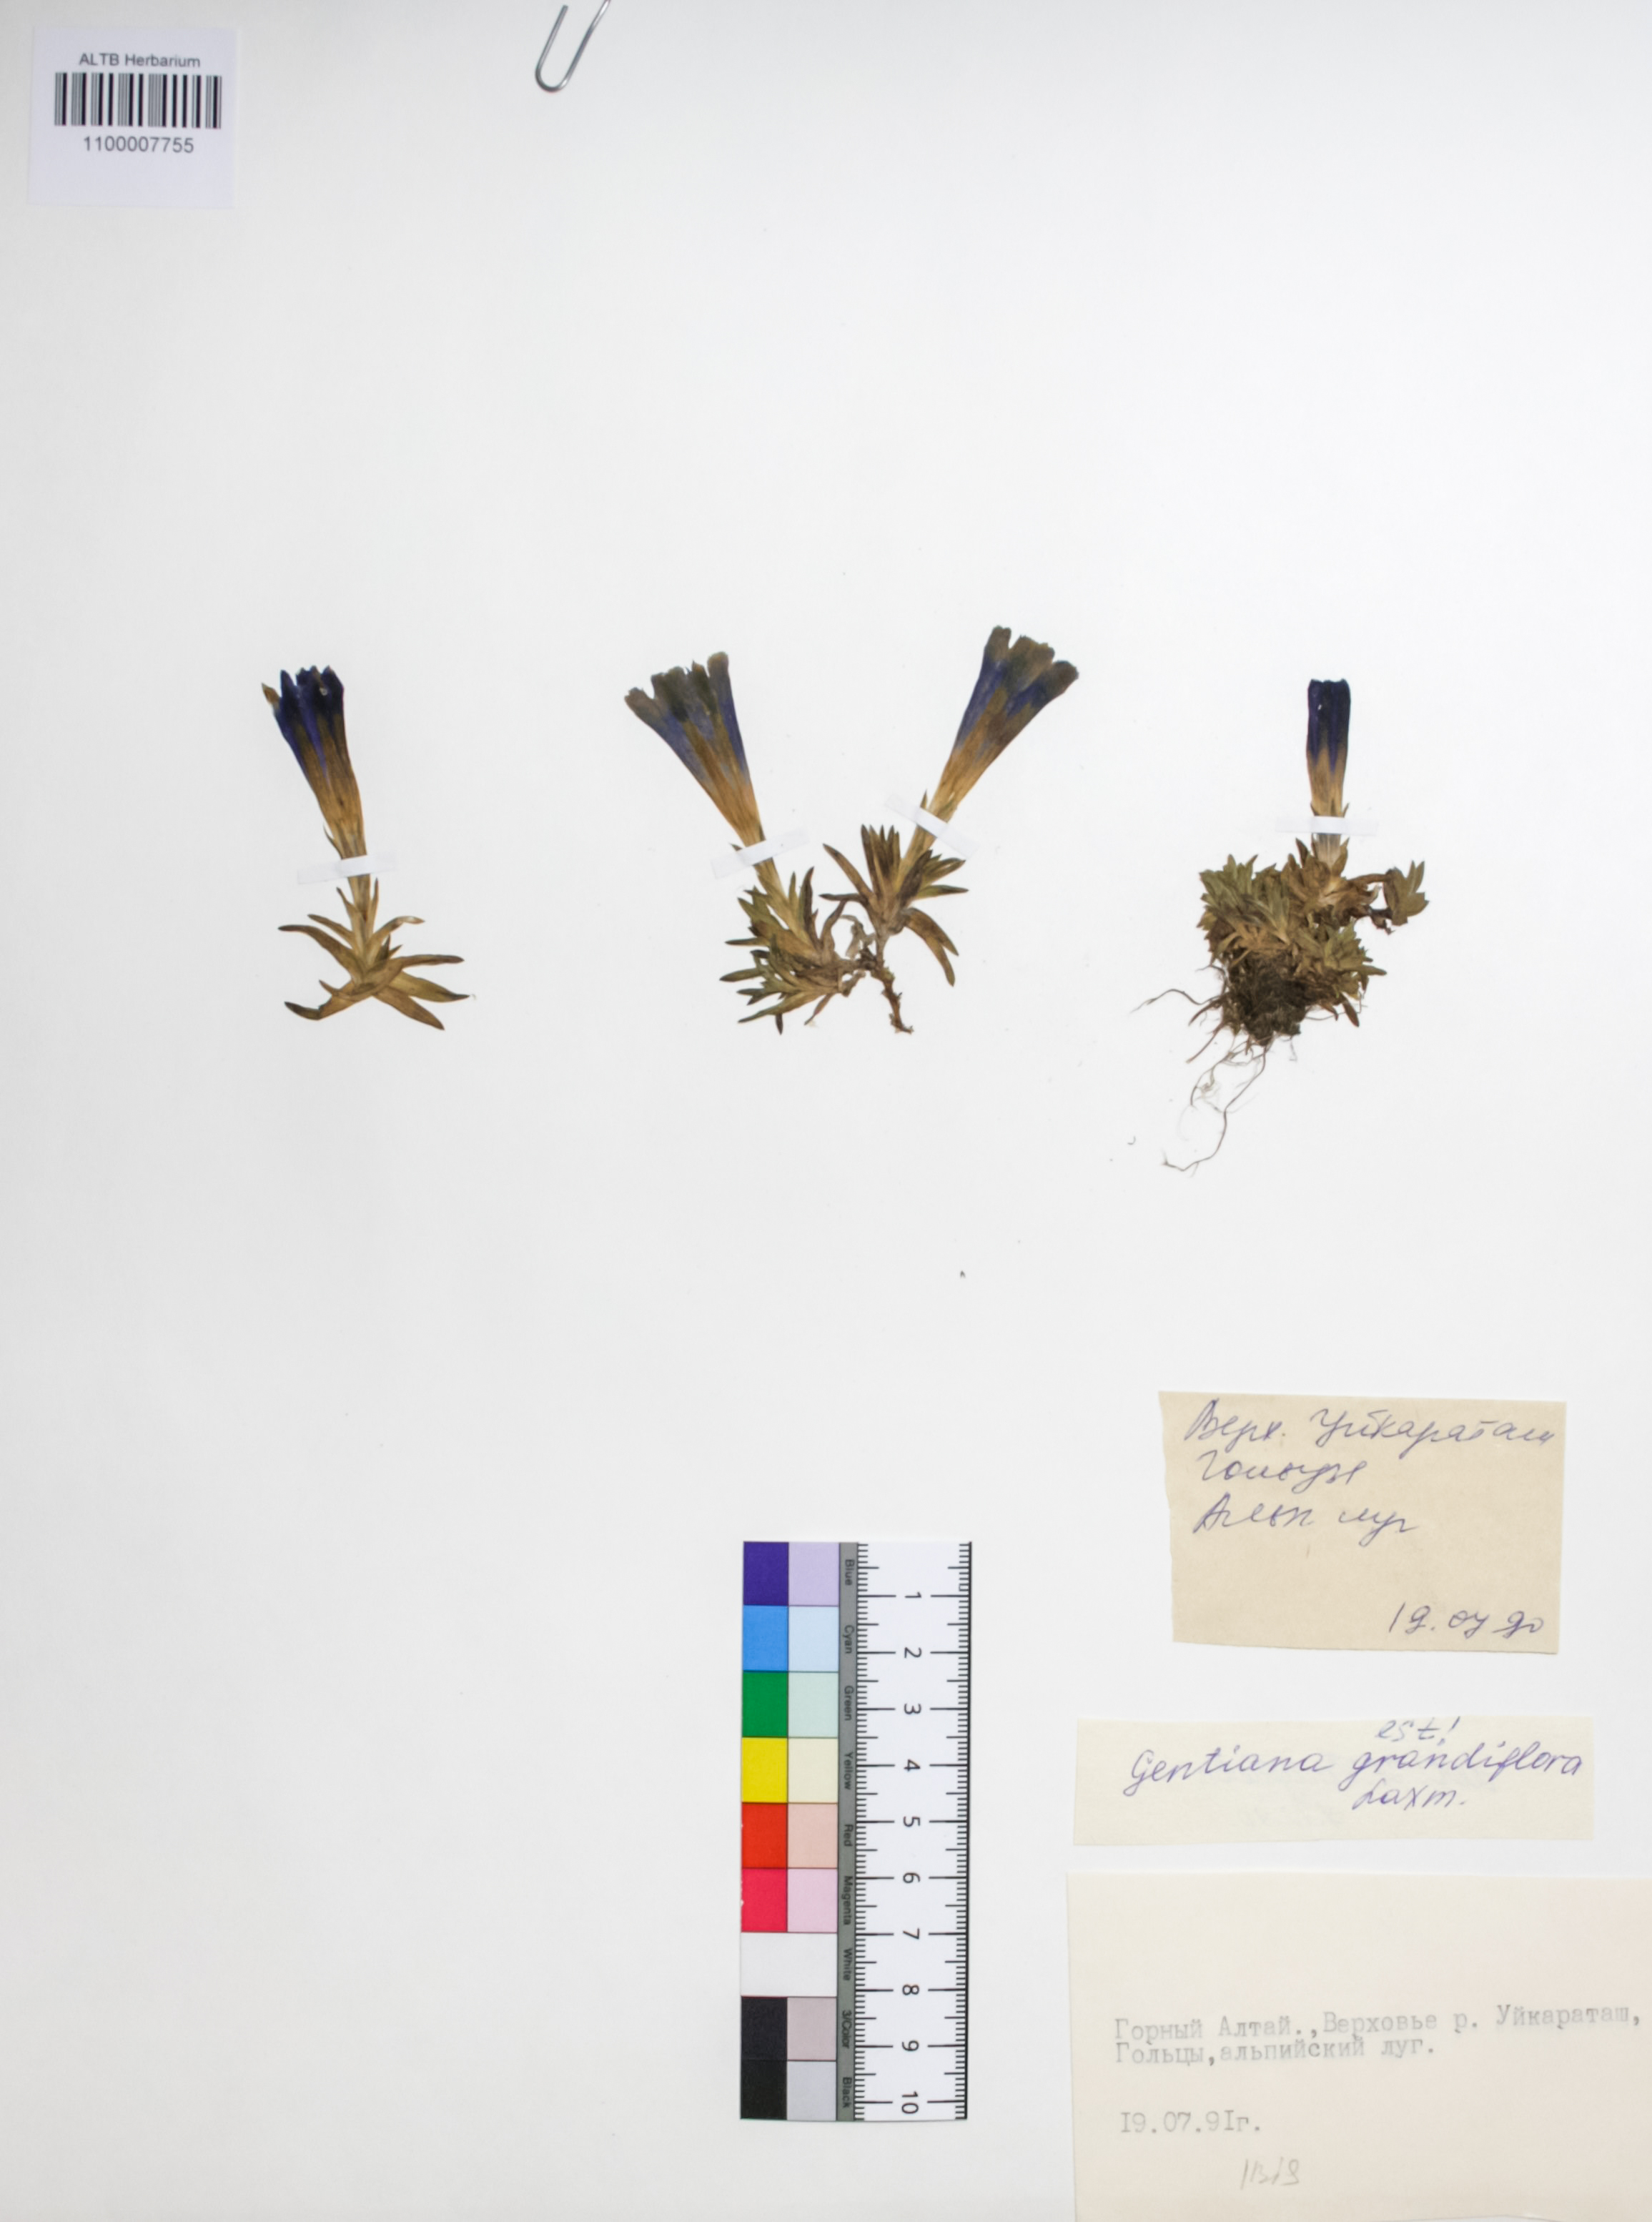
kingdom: Plantae
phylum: Tracheophyta
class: Magnoliopsida
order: Gentianales
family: Gentianaceae
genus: Gentiana
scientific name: Gentiana grandiflora
